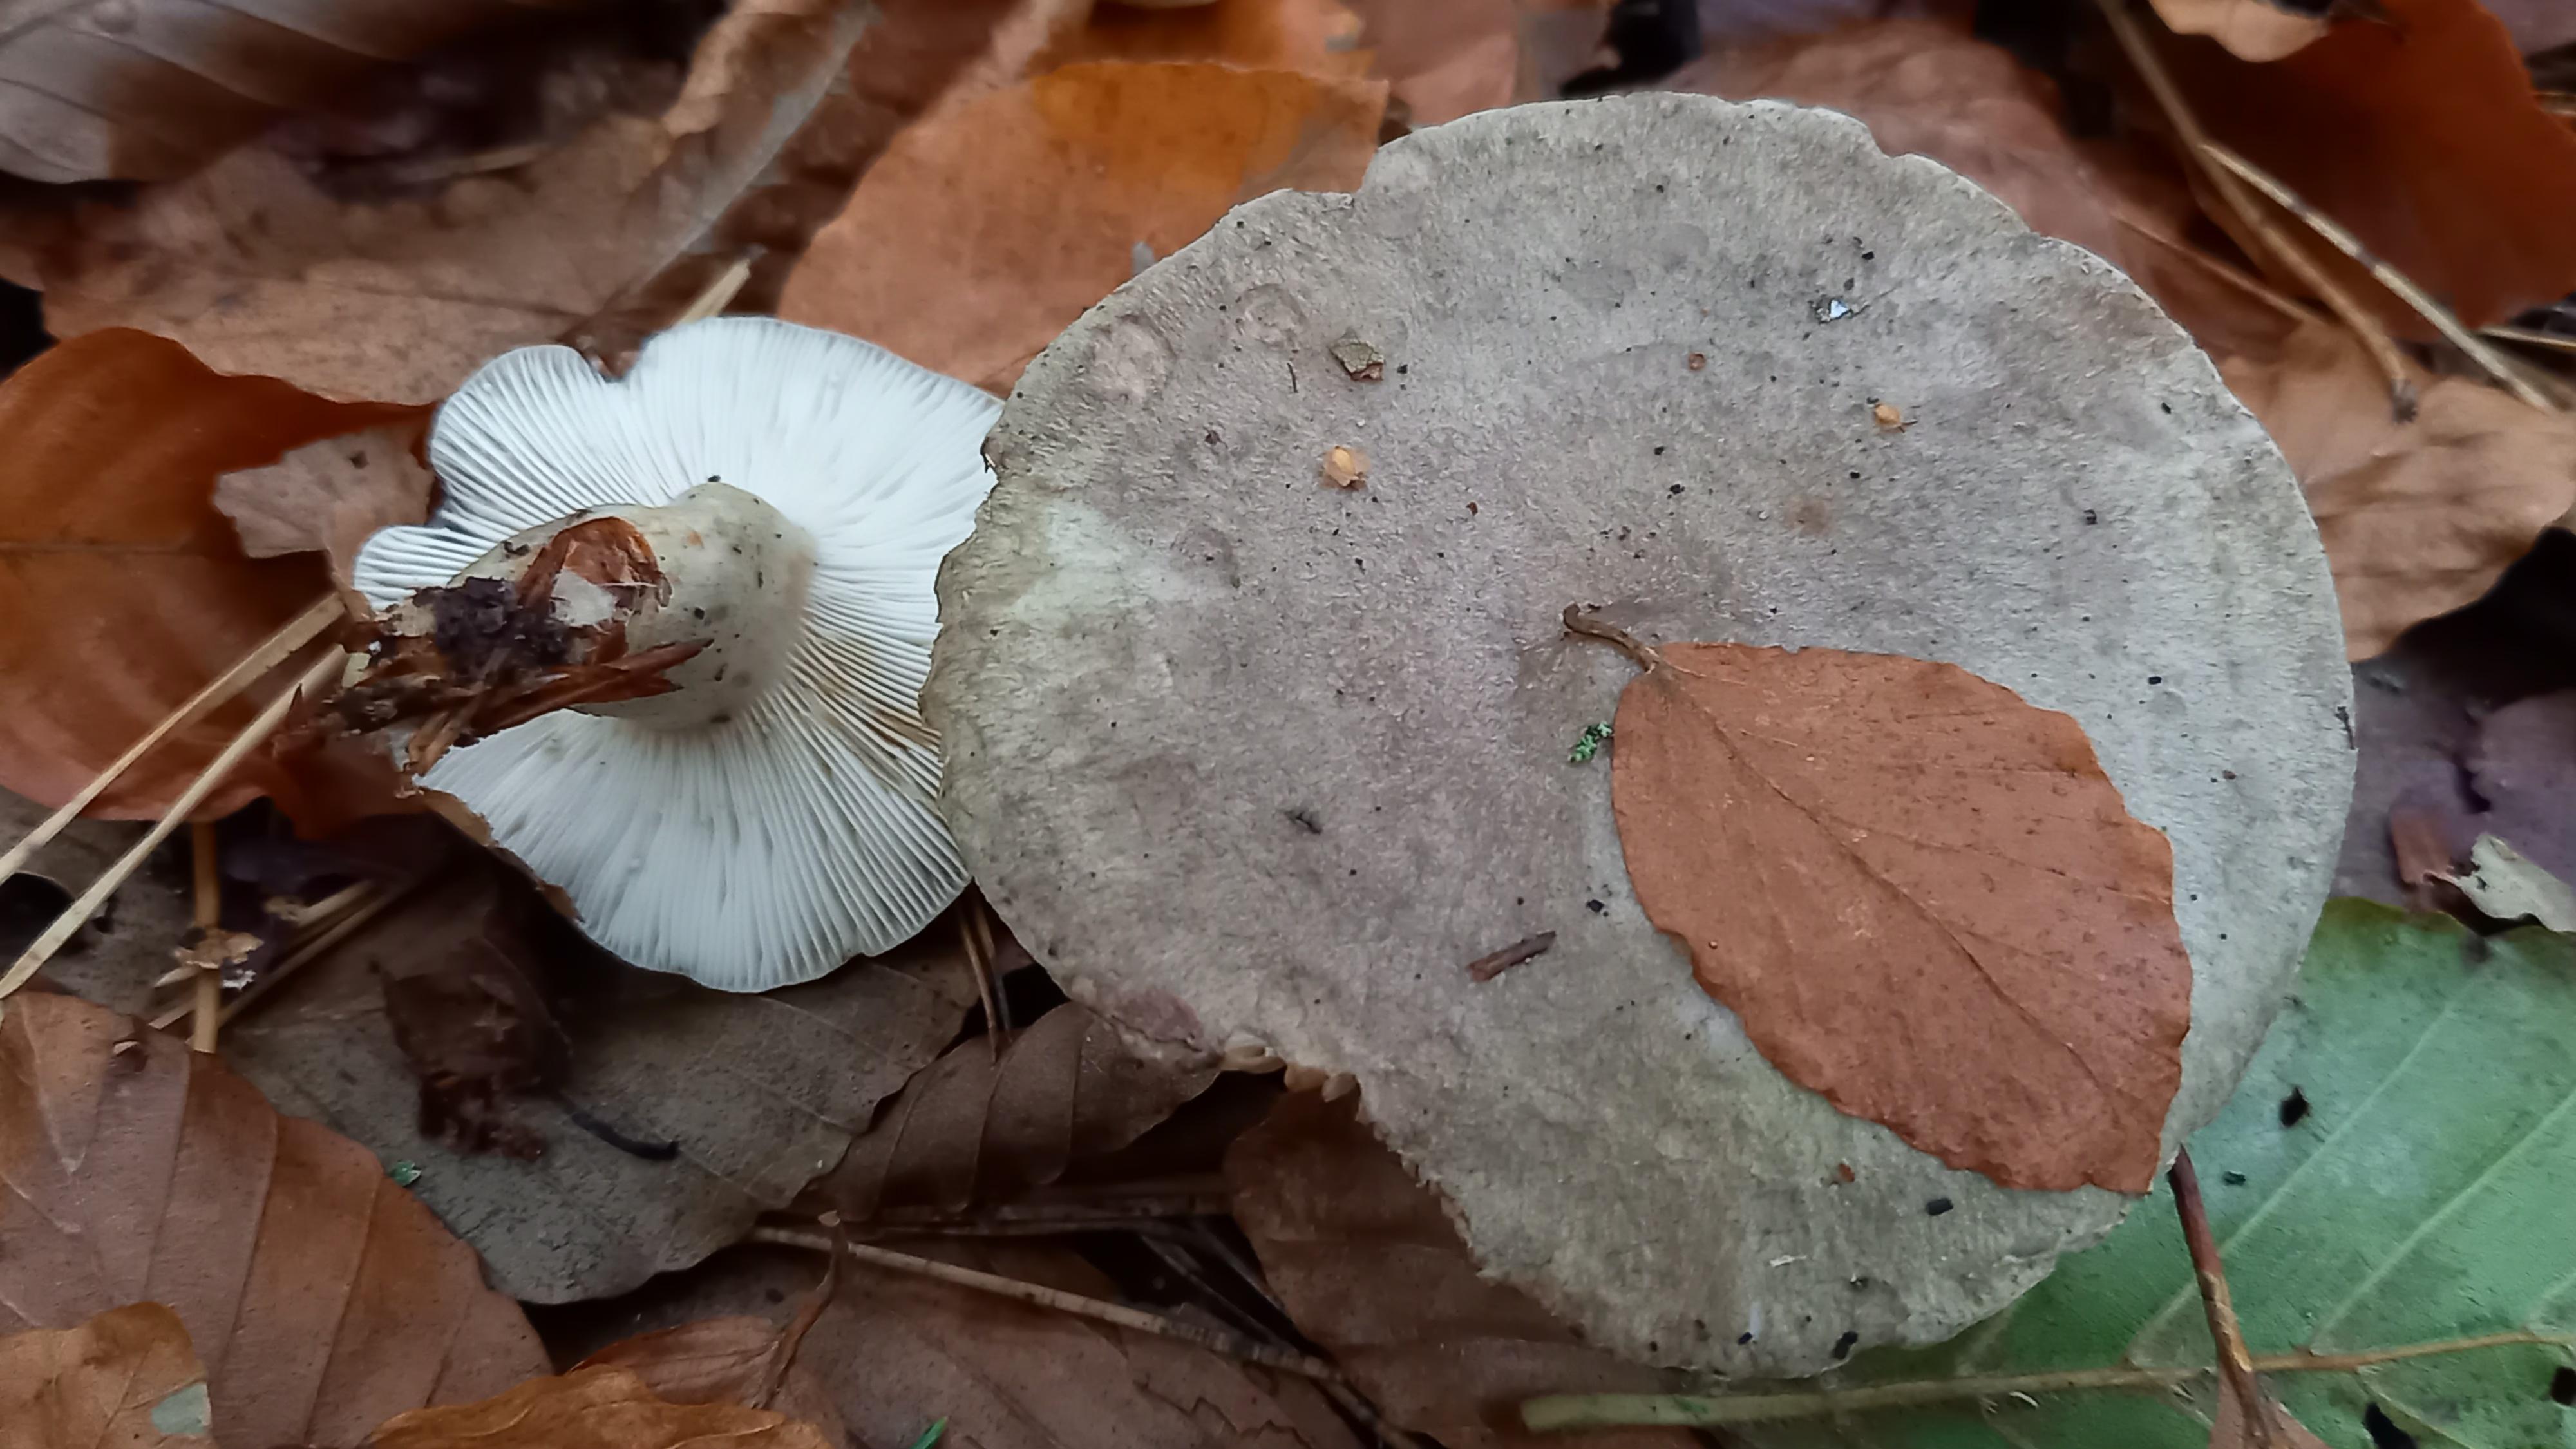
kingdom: Fungi
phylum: Basidiomycota
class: Agaricomycetes
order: Russulales
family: Russulaceae
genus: Lactarius
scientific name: Lactarius blennius
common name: dråbeplettet mælkehat
